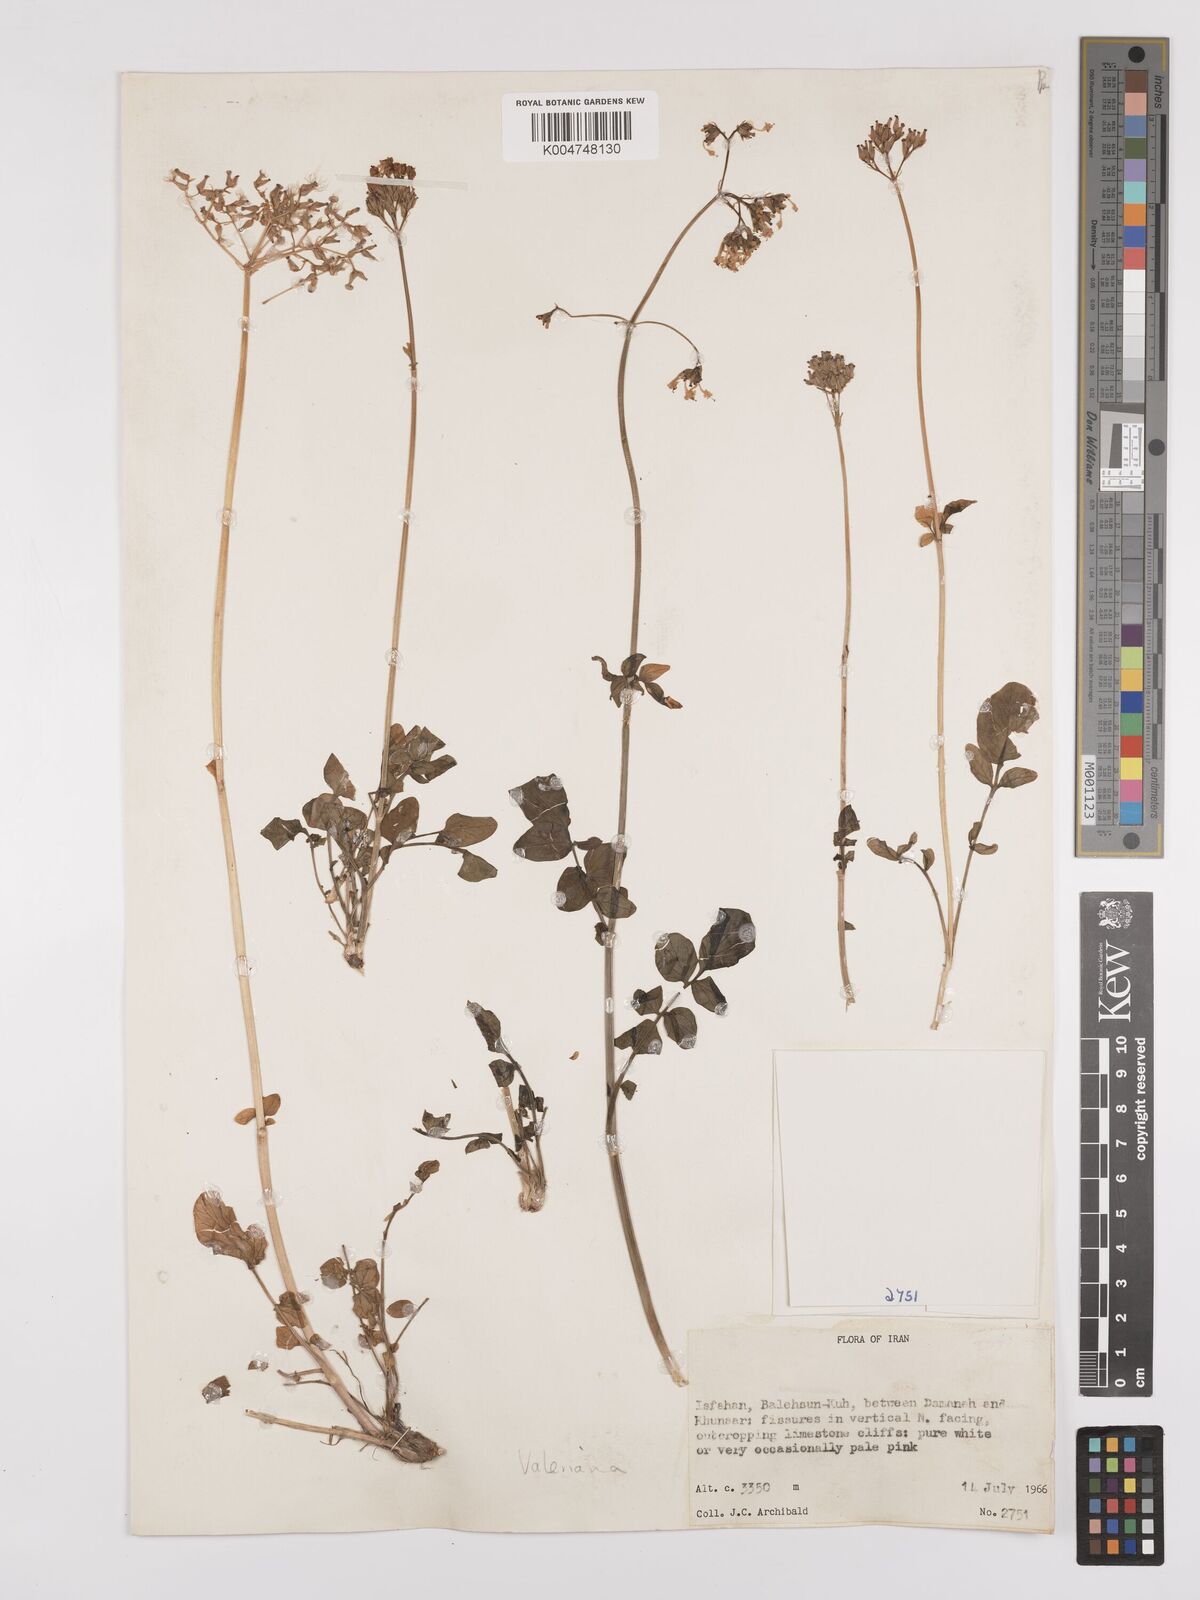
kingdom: Plantae
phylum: Tracheophyta
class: Magnoliopsida
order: Dipsacales
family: Caprifoliaceae
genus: Valeriana
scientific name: Valeriana
